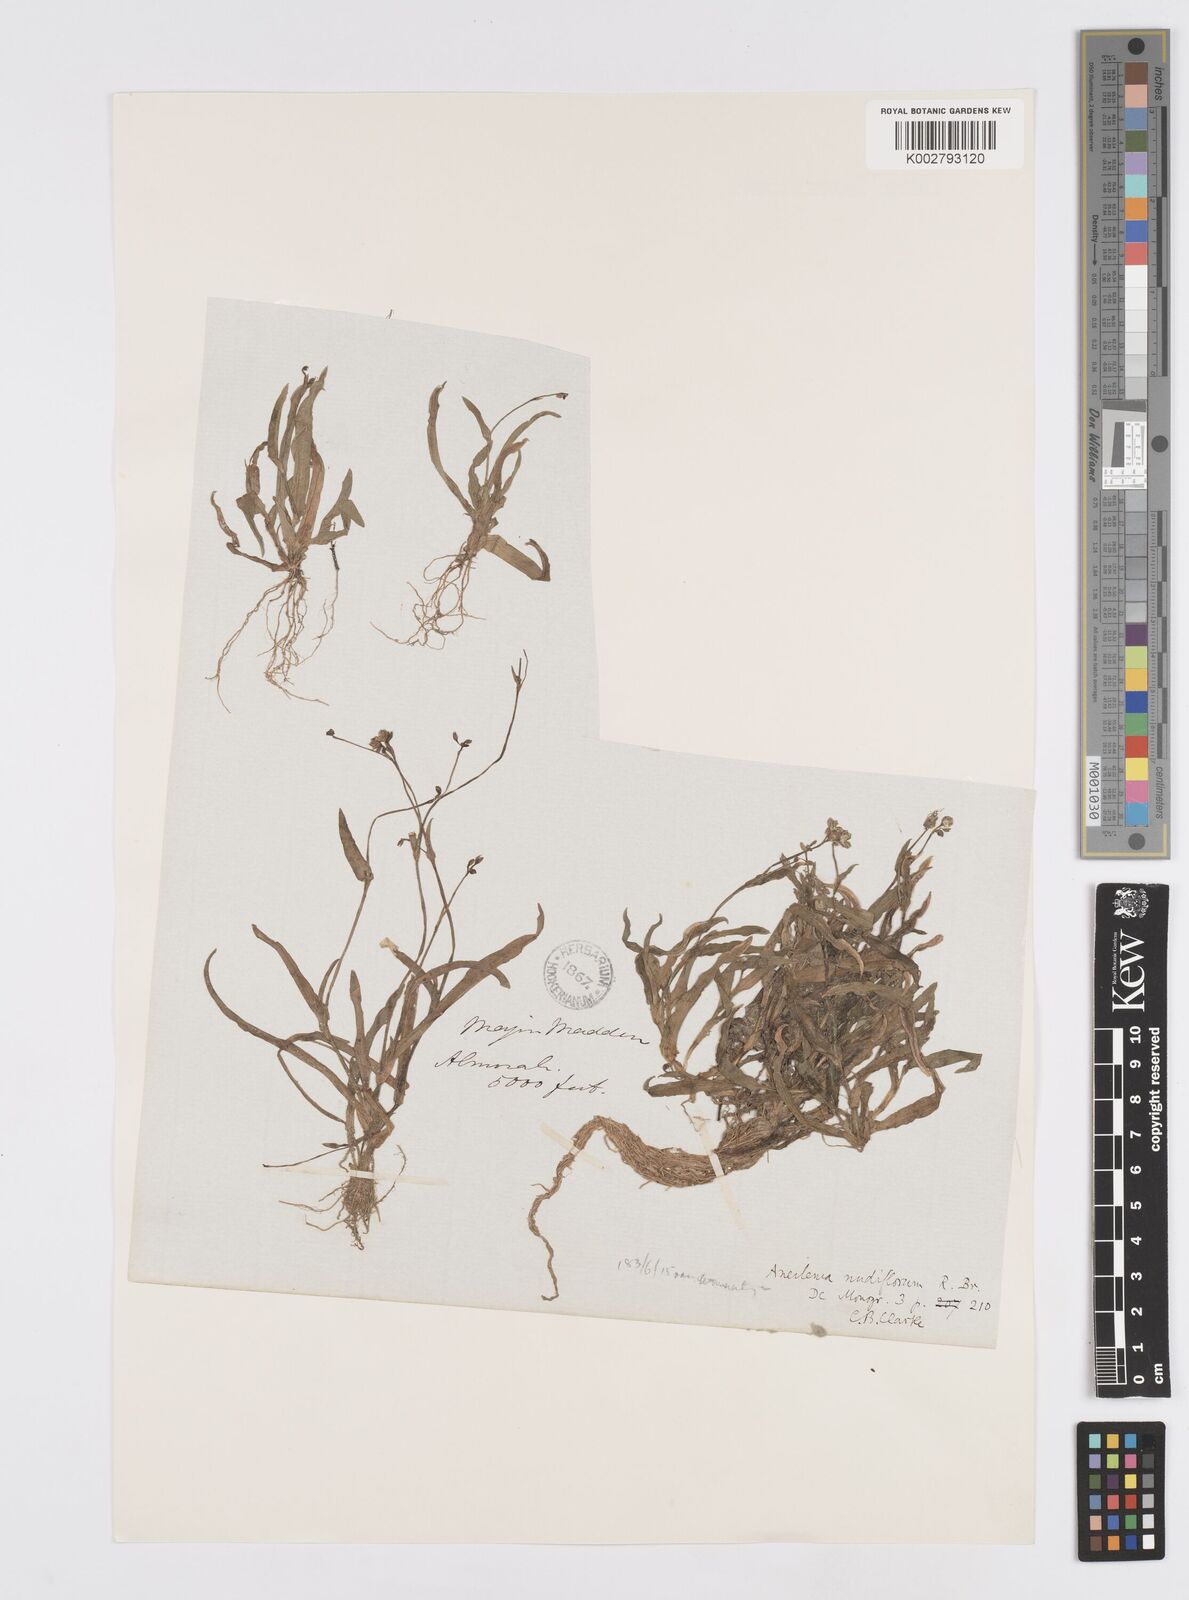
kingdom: Plantae
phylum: Tracheophyta
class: Liliopsida
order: Commelinales
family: Commelinaceae
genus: Murdannia
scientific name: Murdannia nudiflora
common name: Nakedstem dewflower
